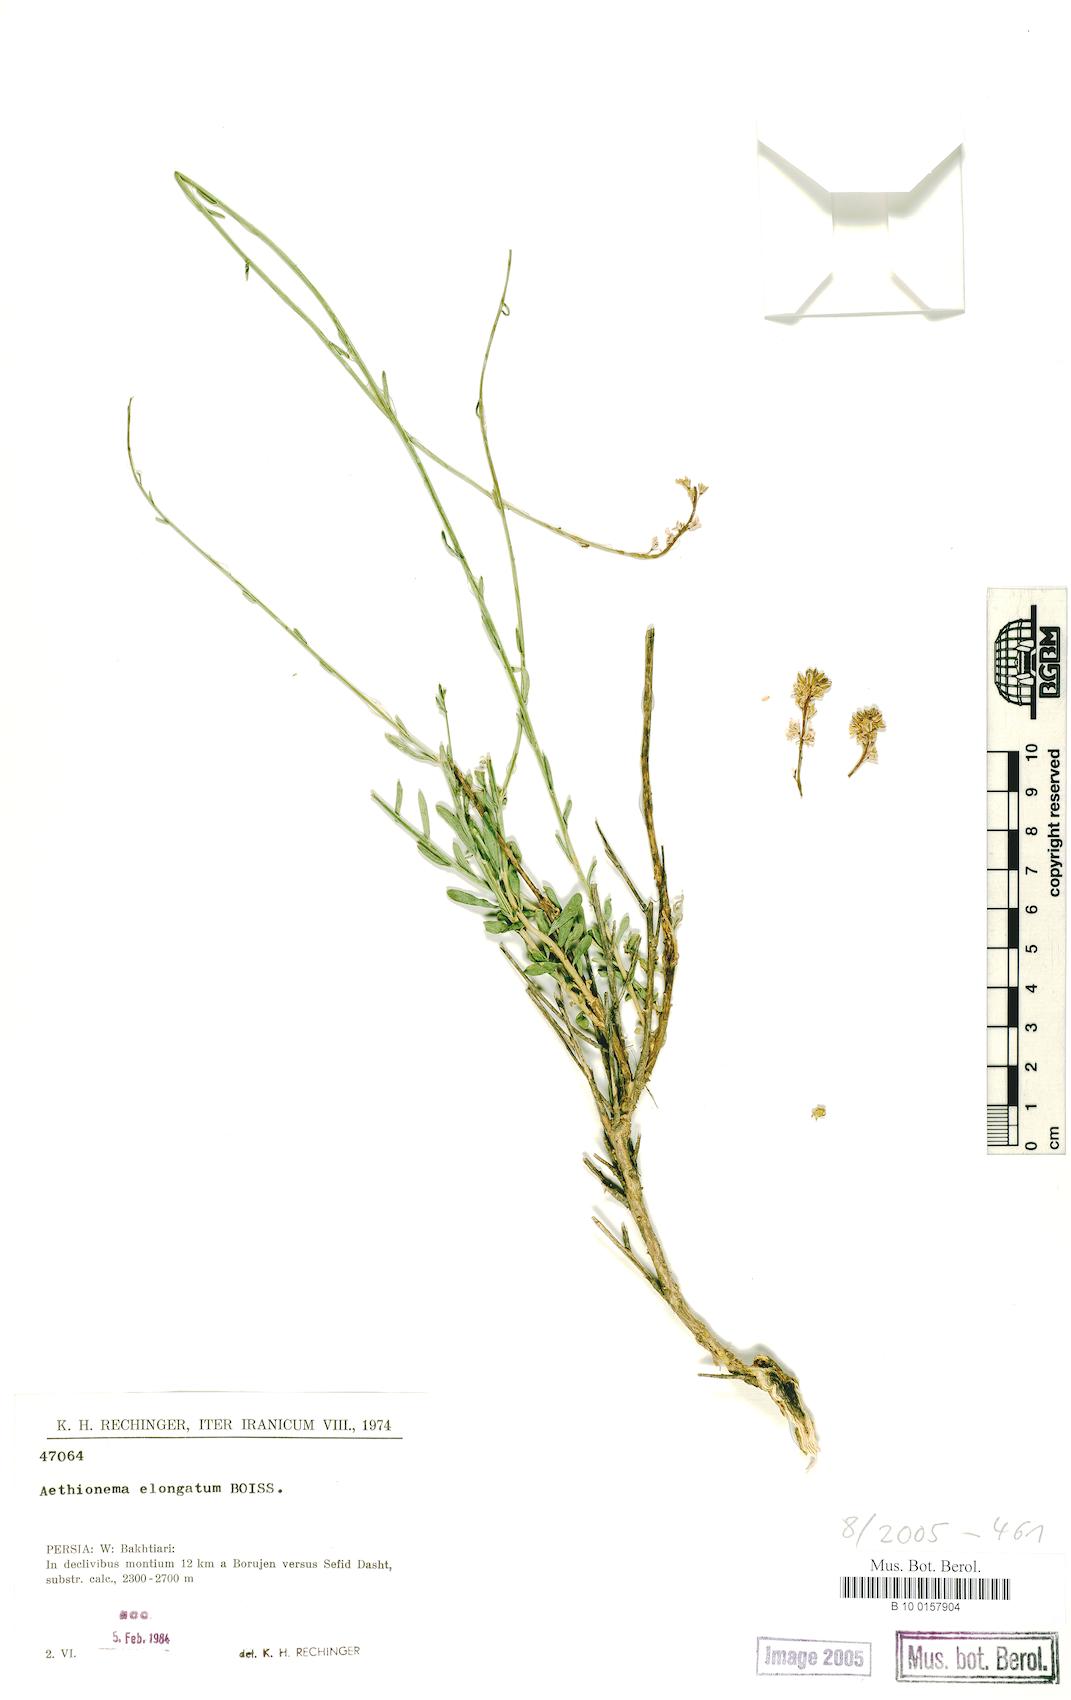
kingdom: Plantae
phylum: Tracheophyta
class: Magnoliopsida
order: Brassicales
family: Brassicaceae
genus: Aethionema
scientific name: Aethionema virgatum
